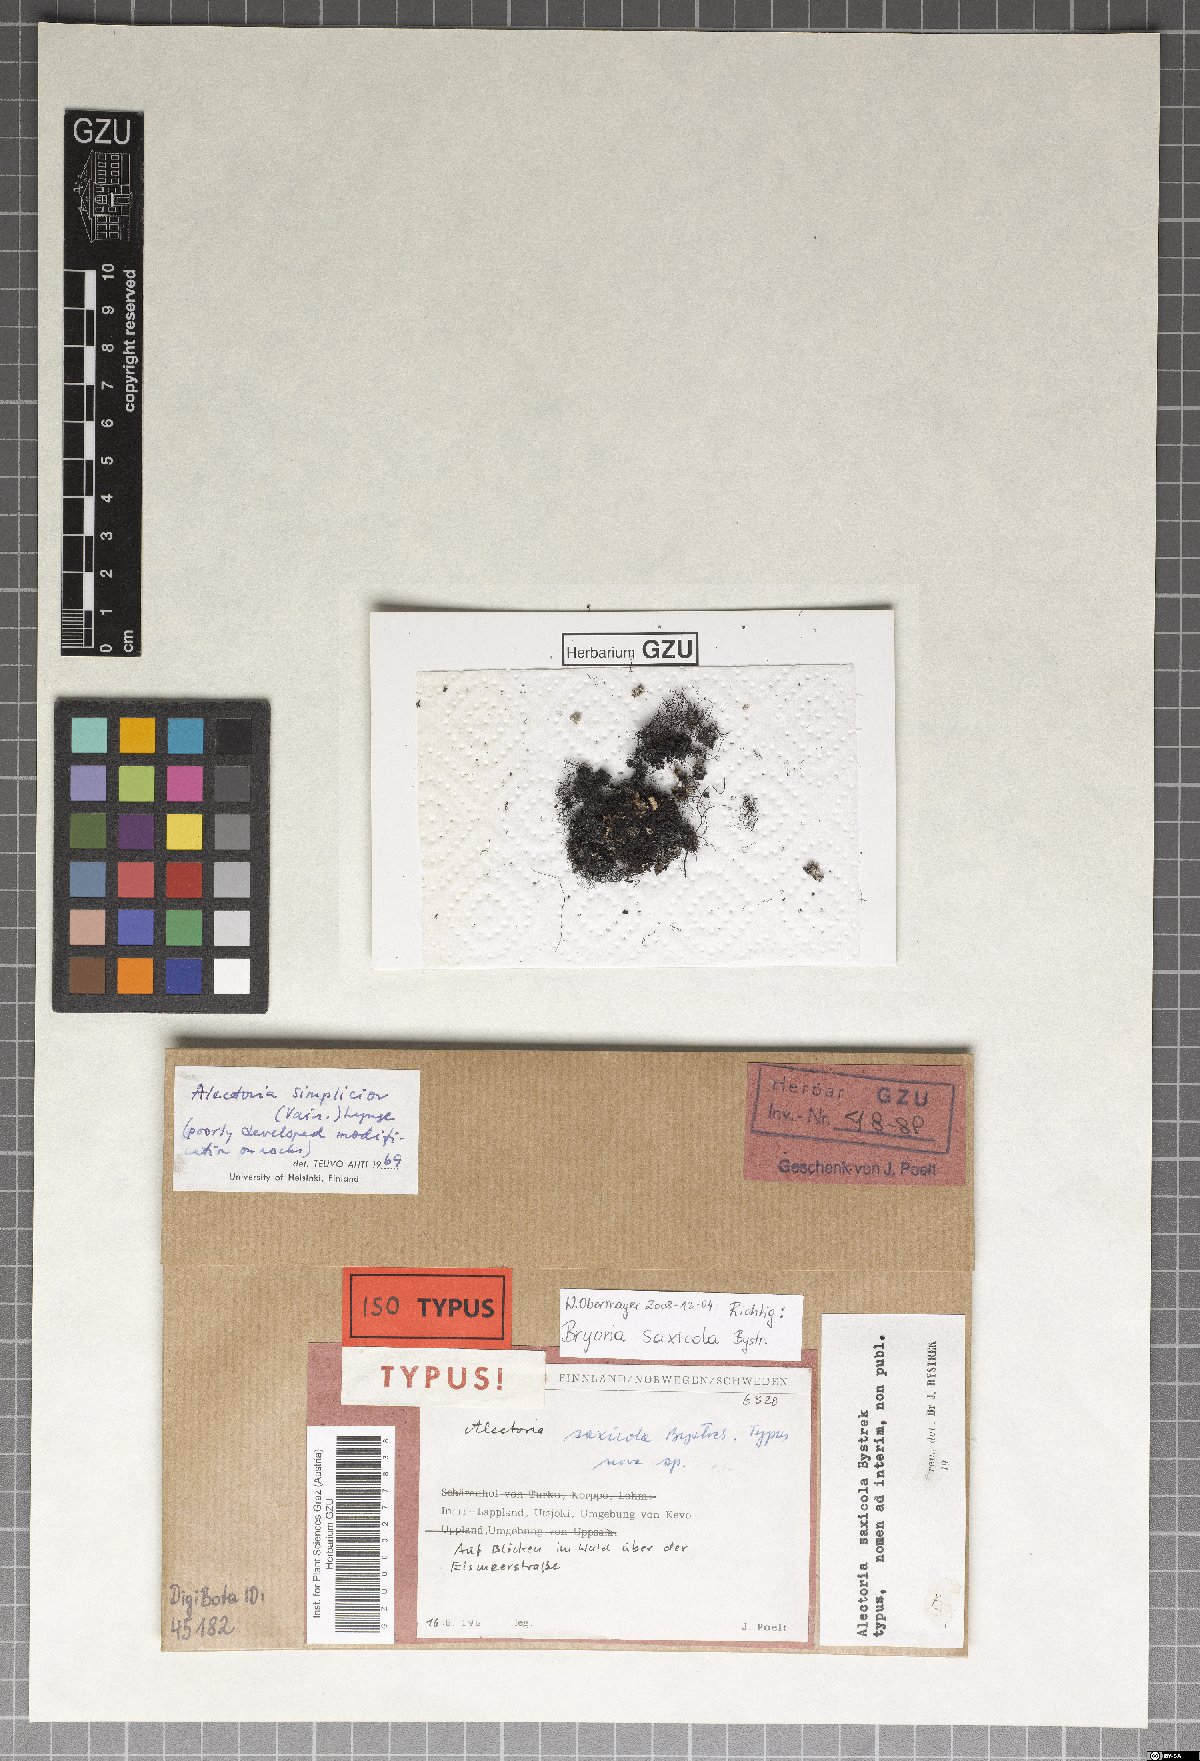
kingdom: Fungi
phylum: Ascomycota
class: Lecanoromycetes
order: Lecanorales
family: Parmeliaceae
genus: Bryoria
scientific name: Bryoria
